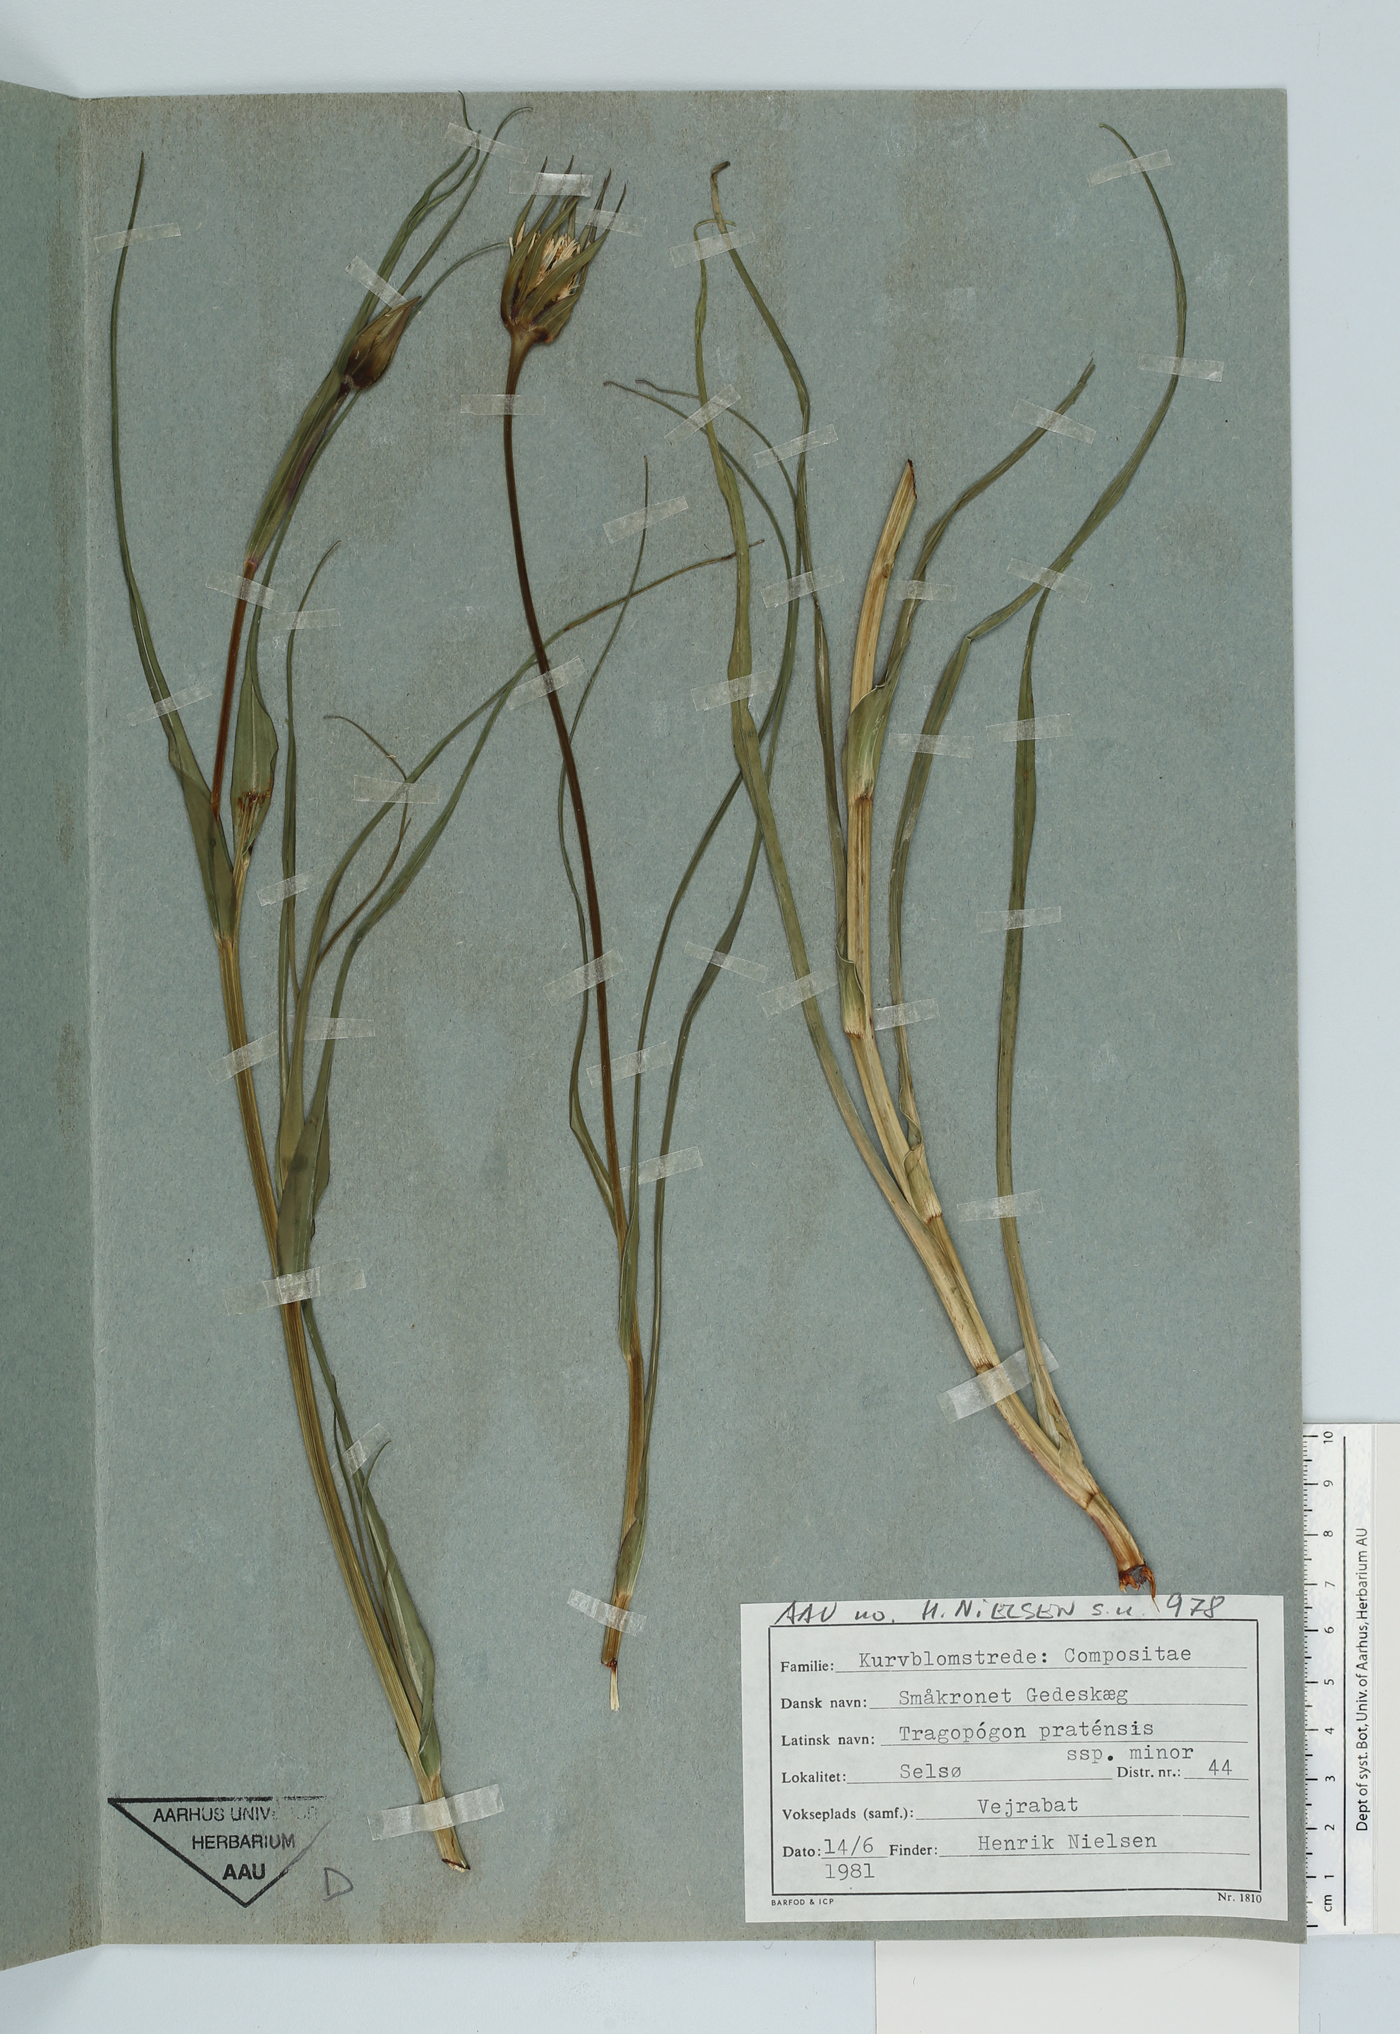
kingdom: Plantae
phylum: Tracheophyta
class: Magnoliopsida
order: Asterales
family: Asteraceae
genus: Tragopogon
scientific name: Tragopogon minor
